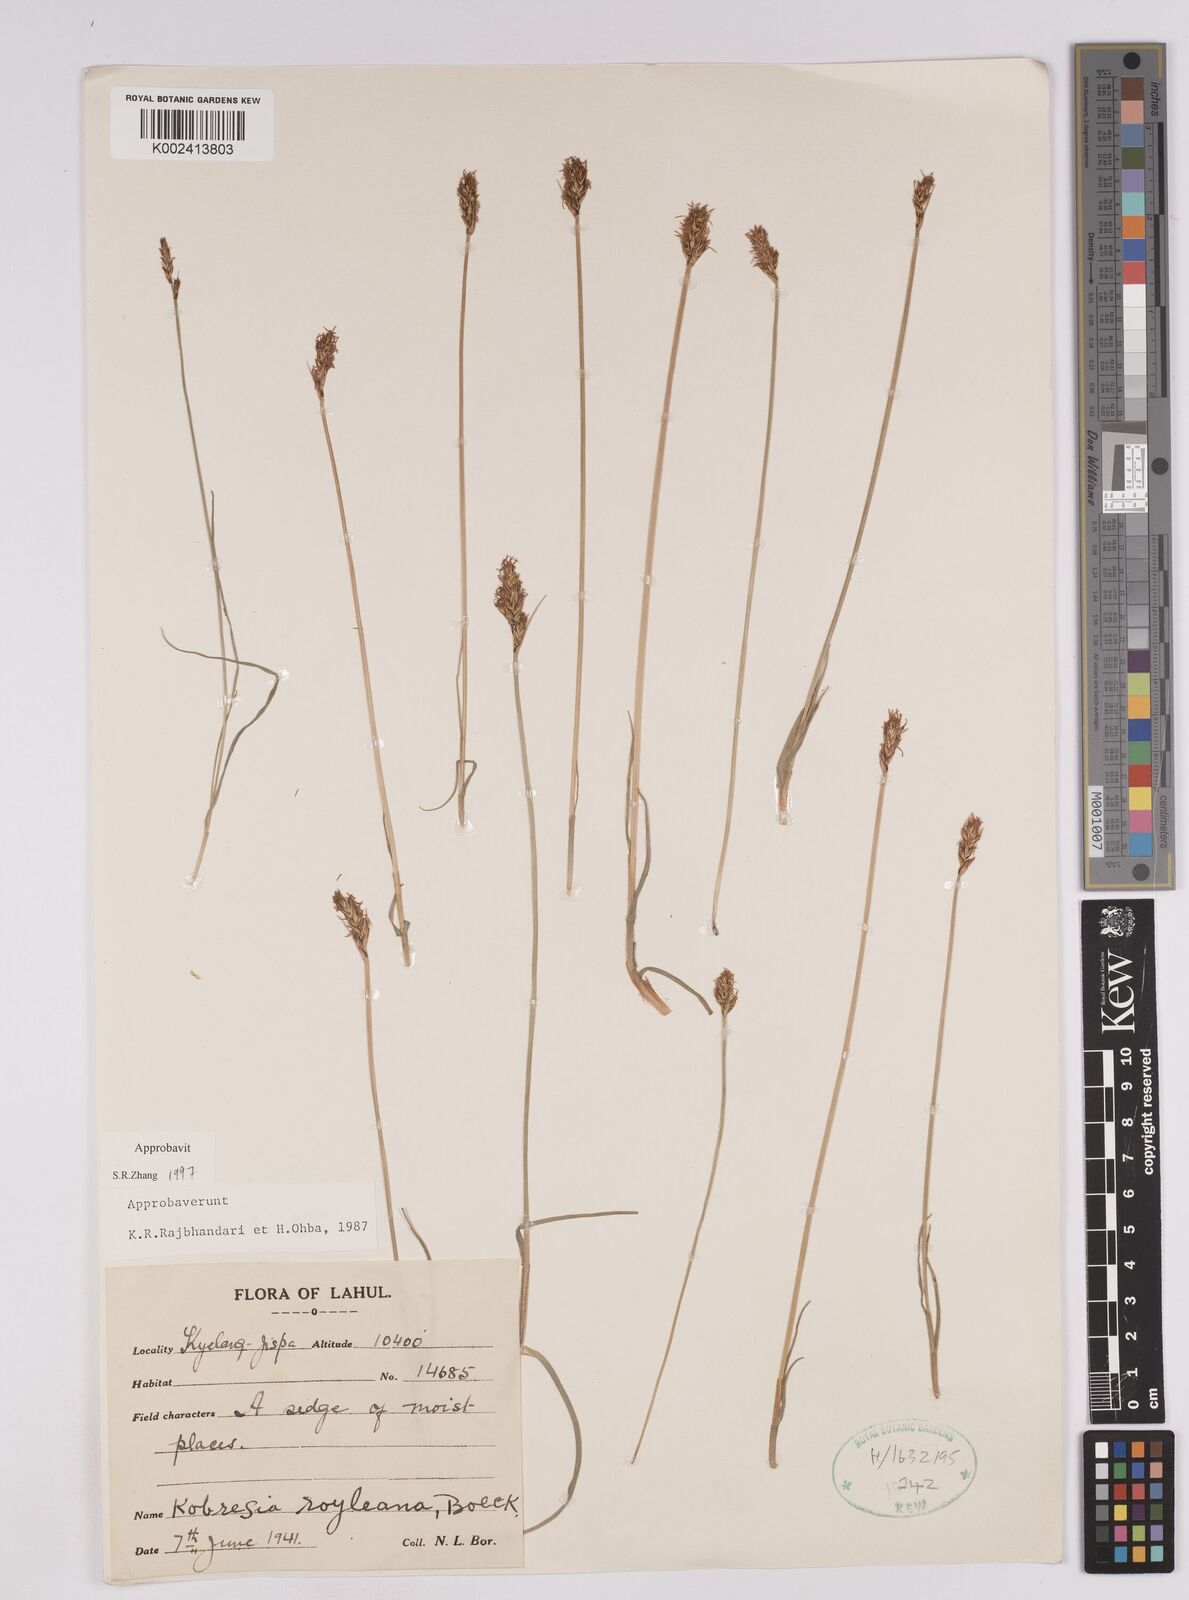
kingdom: Plantae
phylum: Tracheophyta
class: Liliopsida
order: Poales
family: Cyperaceae
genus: Carex
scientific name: Carex kokanica
